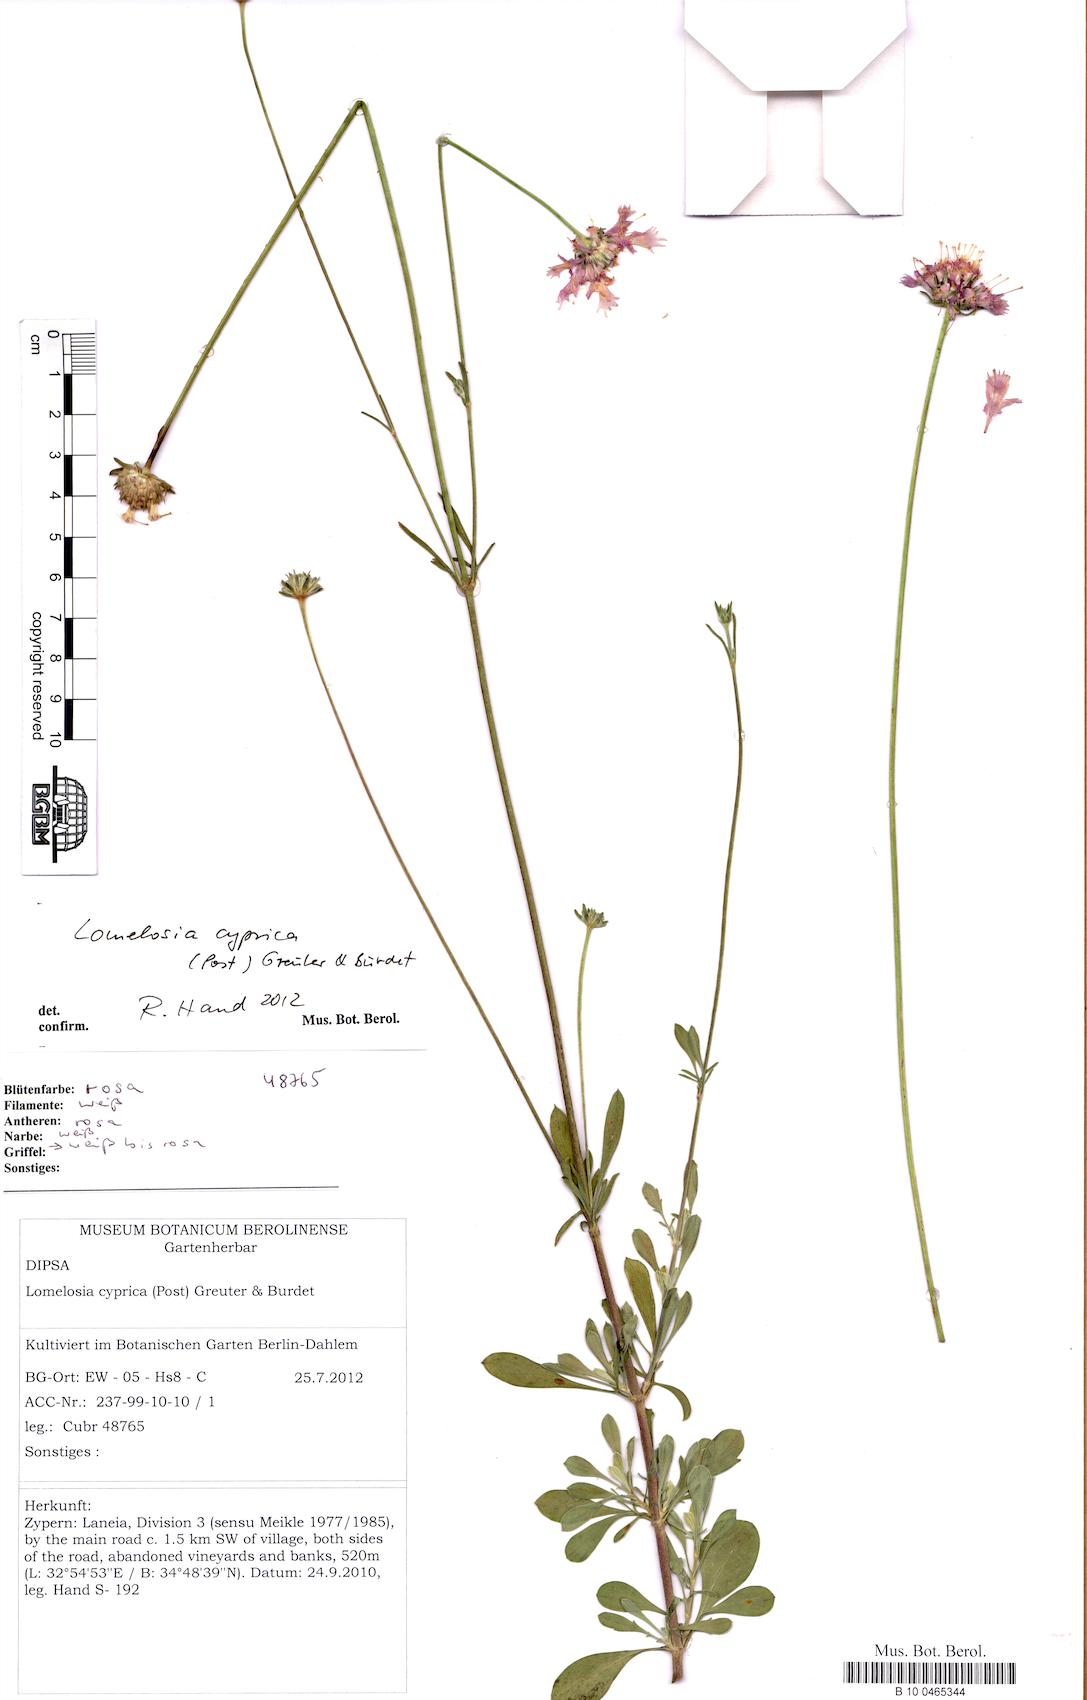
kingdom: Plantae
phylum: Tracheophyta
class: Magnoliopsida
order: Dipsacales
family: Caprifoliaceae
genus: Lomelosia
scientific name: Lomelosia cyprica
